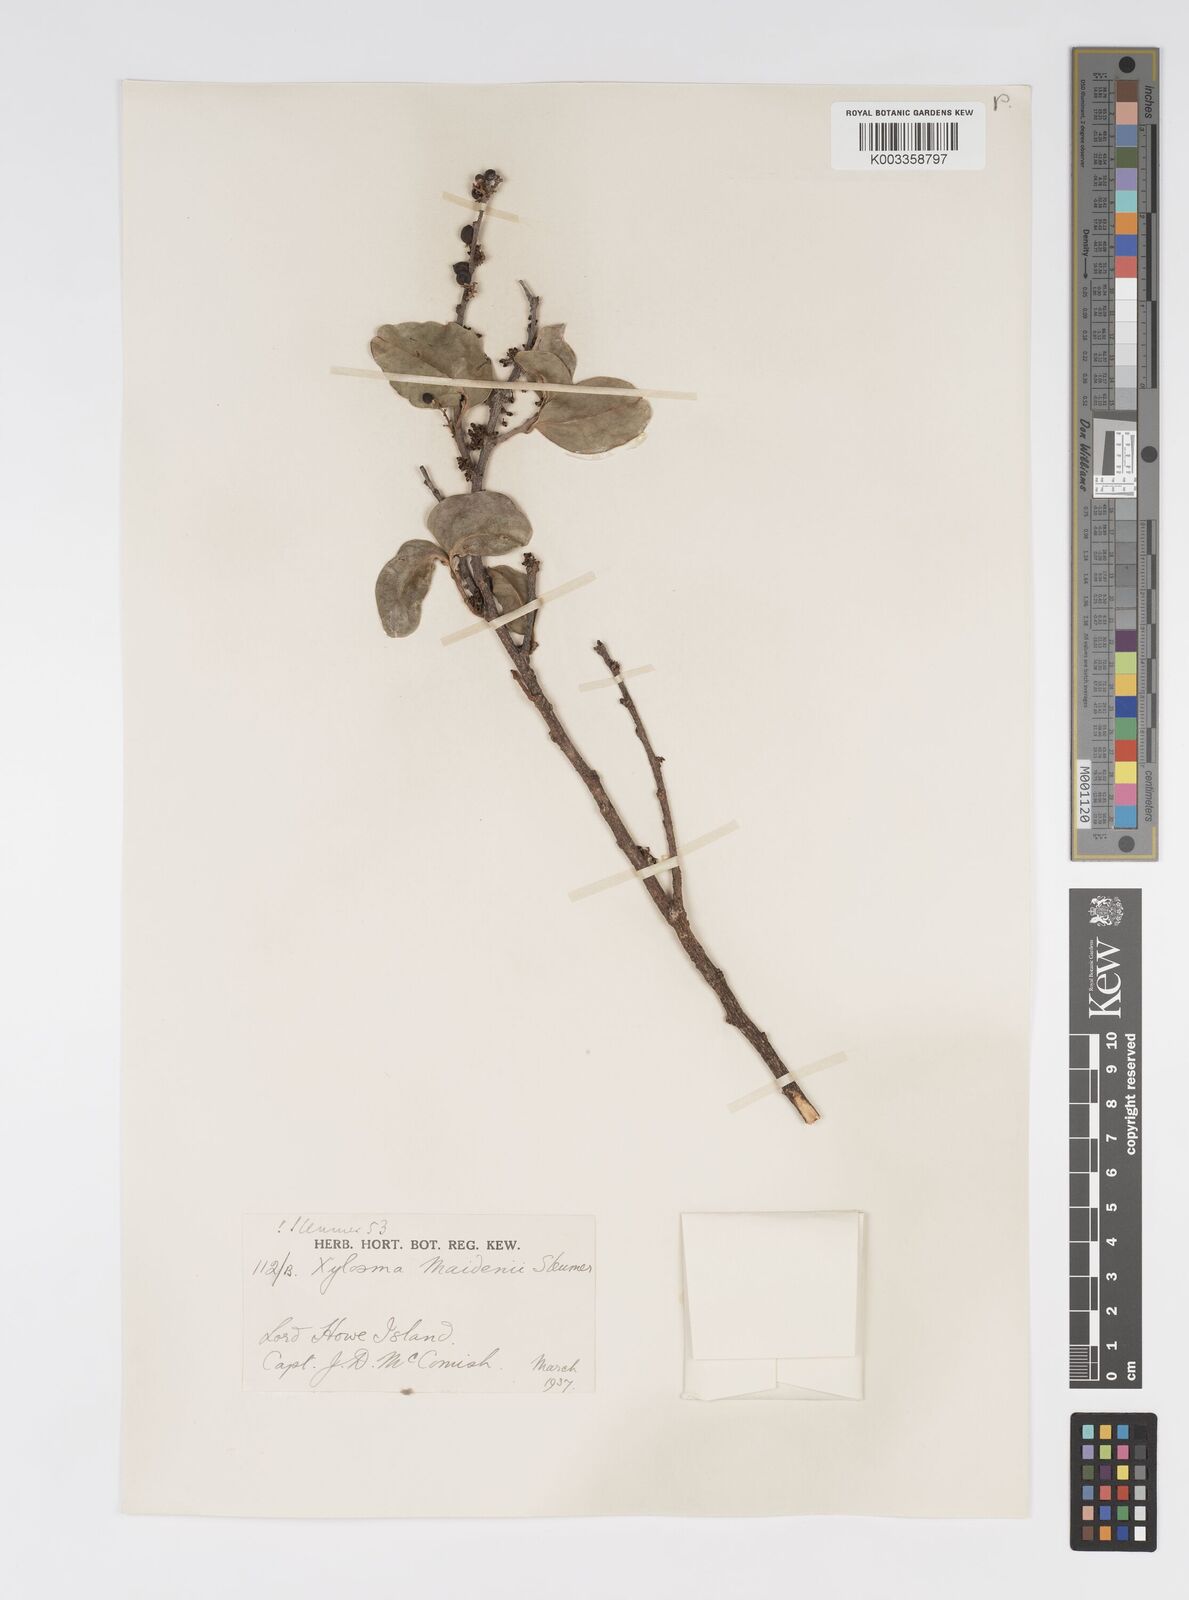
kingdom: Plantae
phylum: Tracheophyta
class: Magnoliopsida
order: Malpighiales
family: Salicaceae
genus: Xylosma
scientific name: Xylosma maidenii
